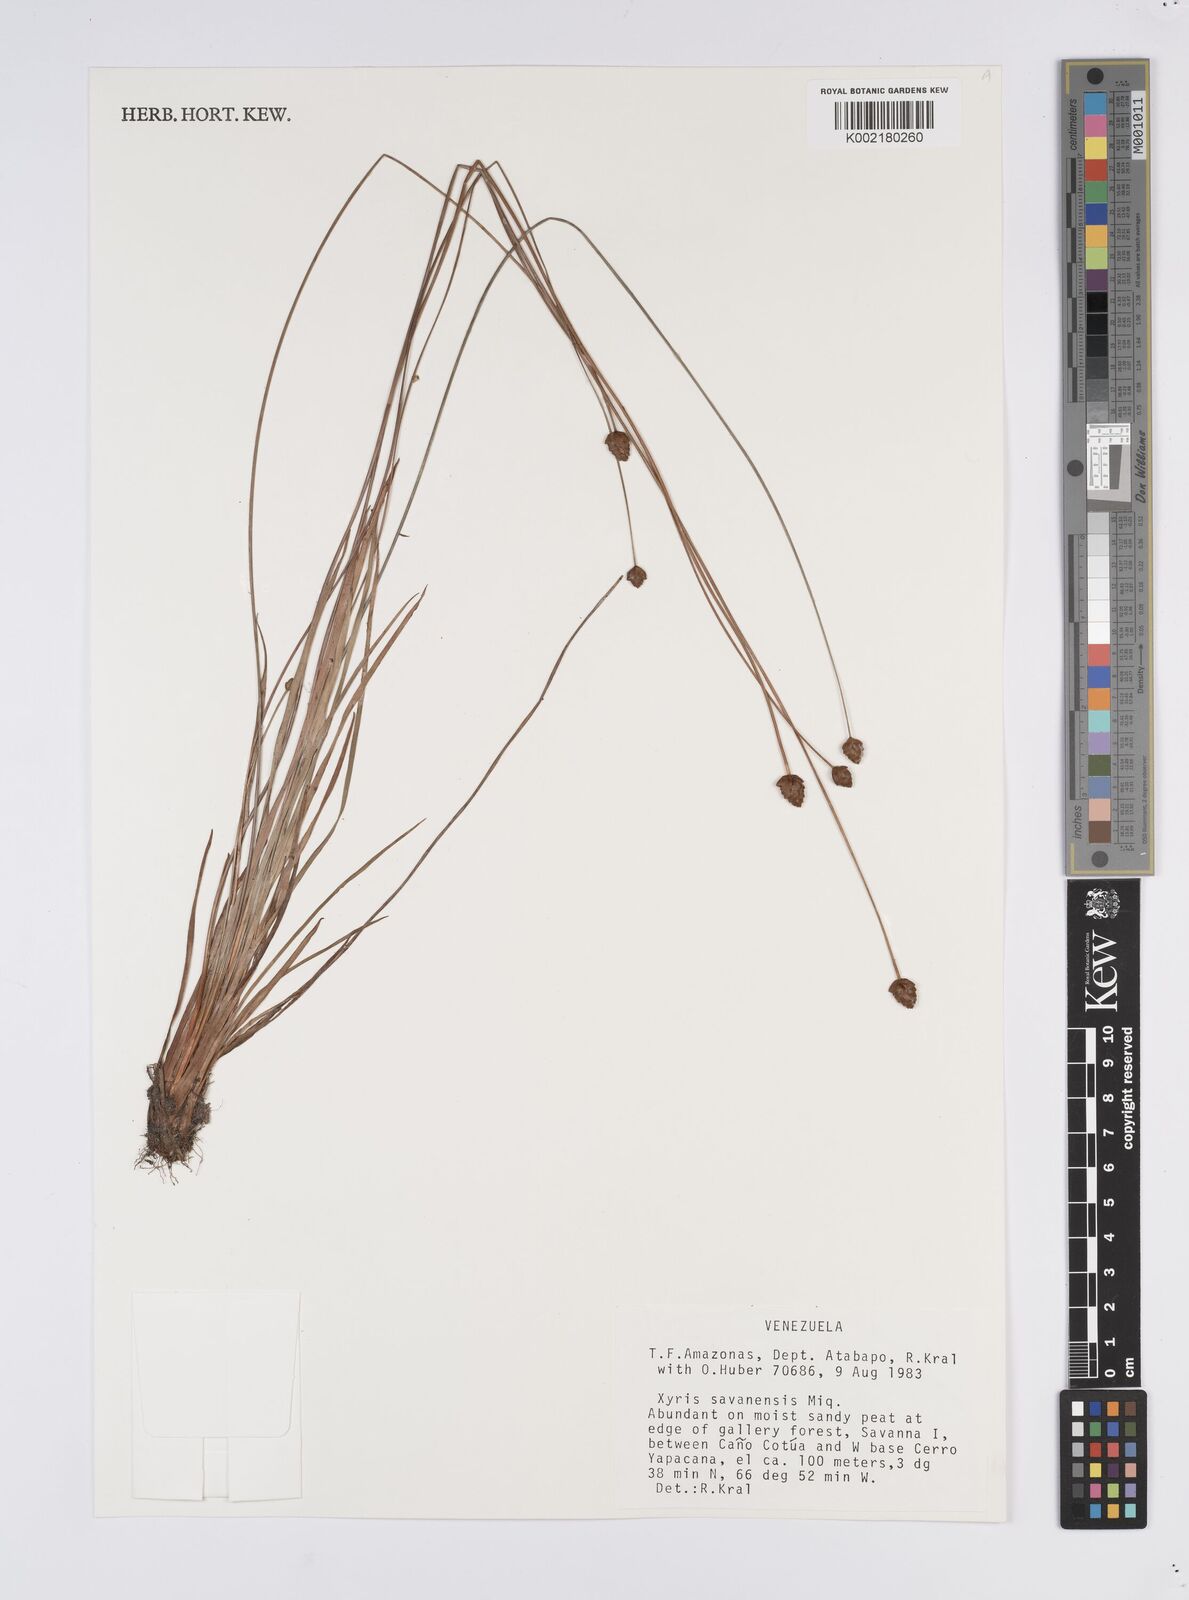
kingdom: Plantae
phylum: Tracheophyta
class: Liliopsida
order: Poales
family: Xyridaceae
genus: Xyris
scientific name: Xyris savanensis
